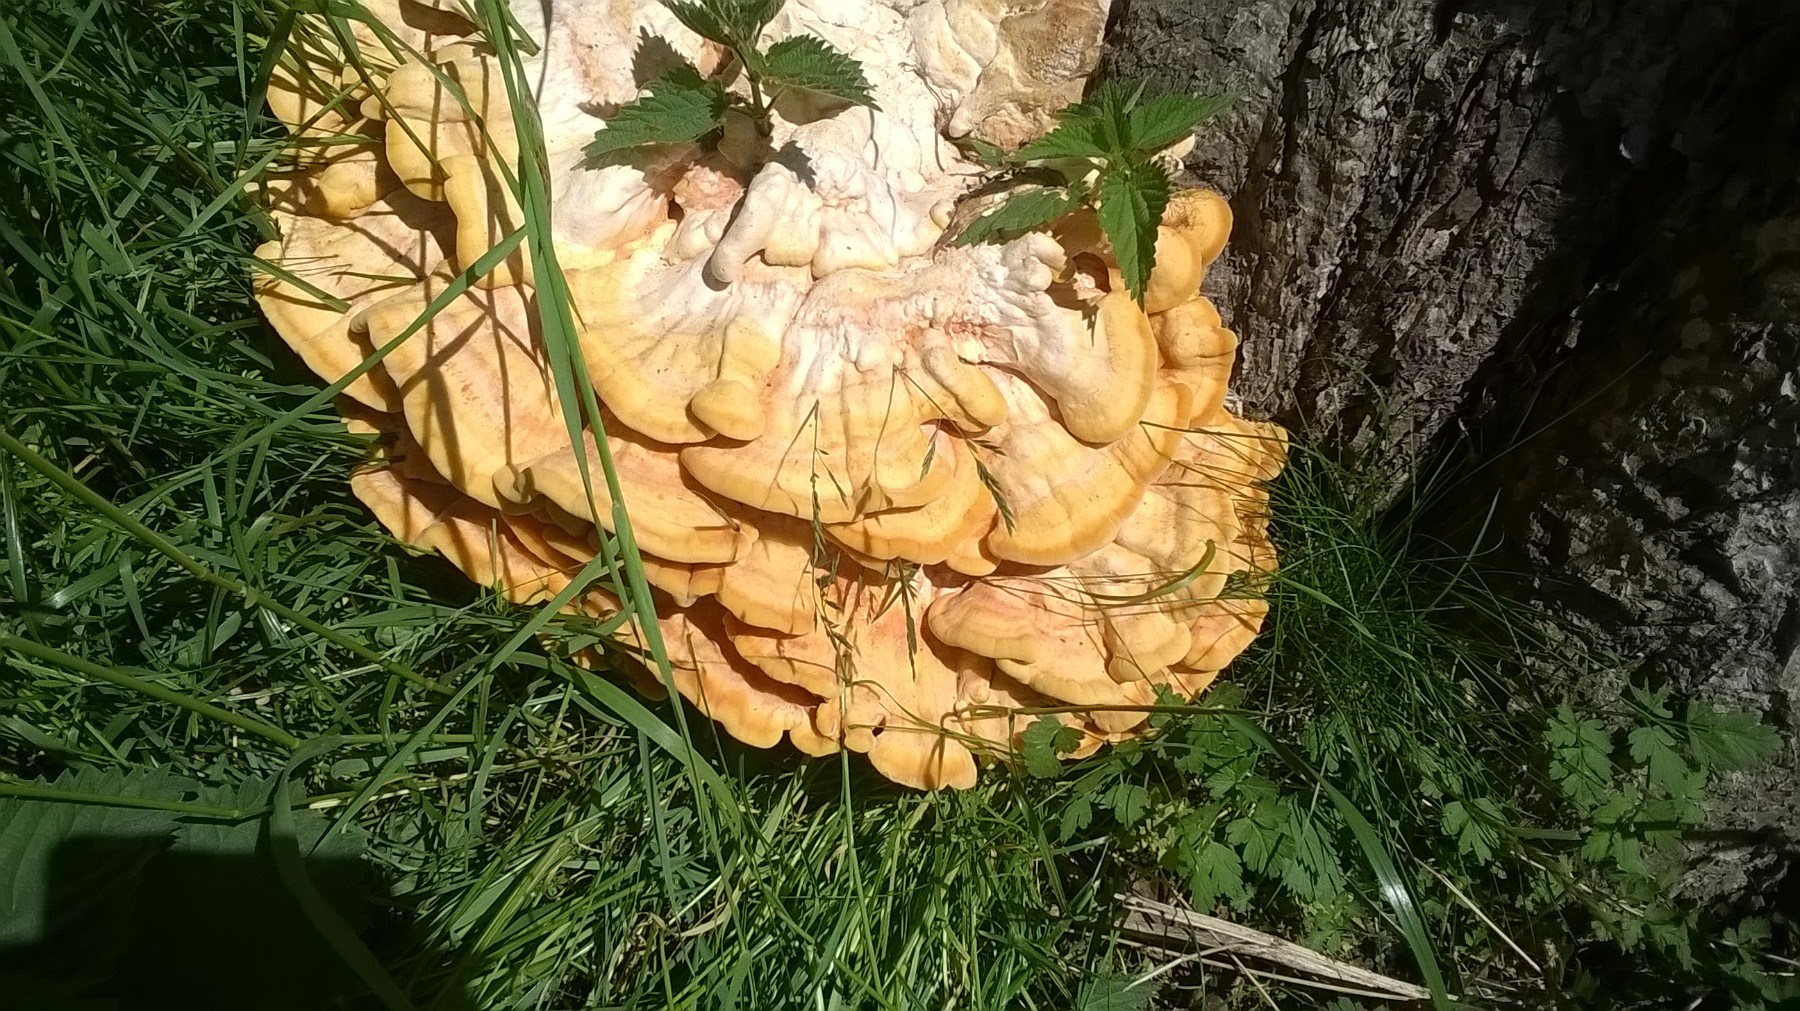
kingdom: Fungi
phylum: Basidiomycota
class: Agaricomycetes
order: Polyporales
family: Laetiporaceae
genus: Laetiporus
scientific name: Laetiporus sulphureus
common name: svovlporesvamp
